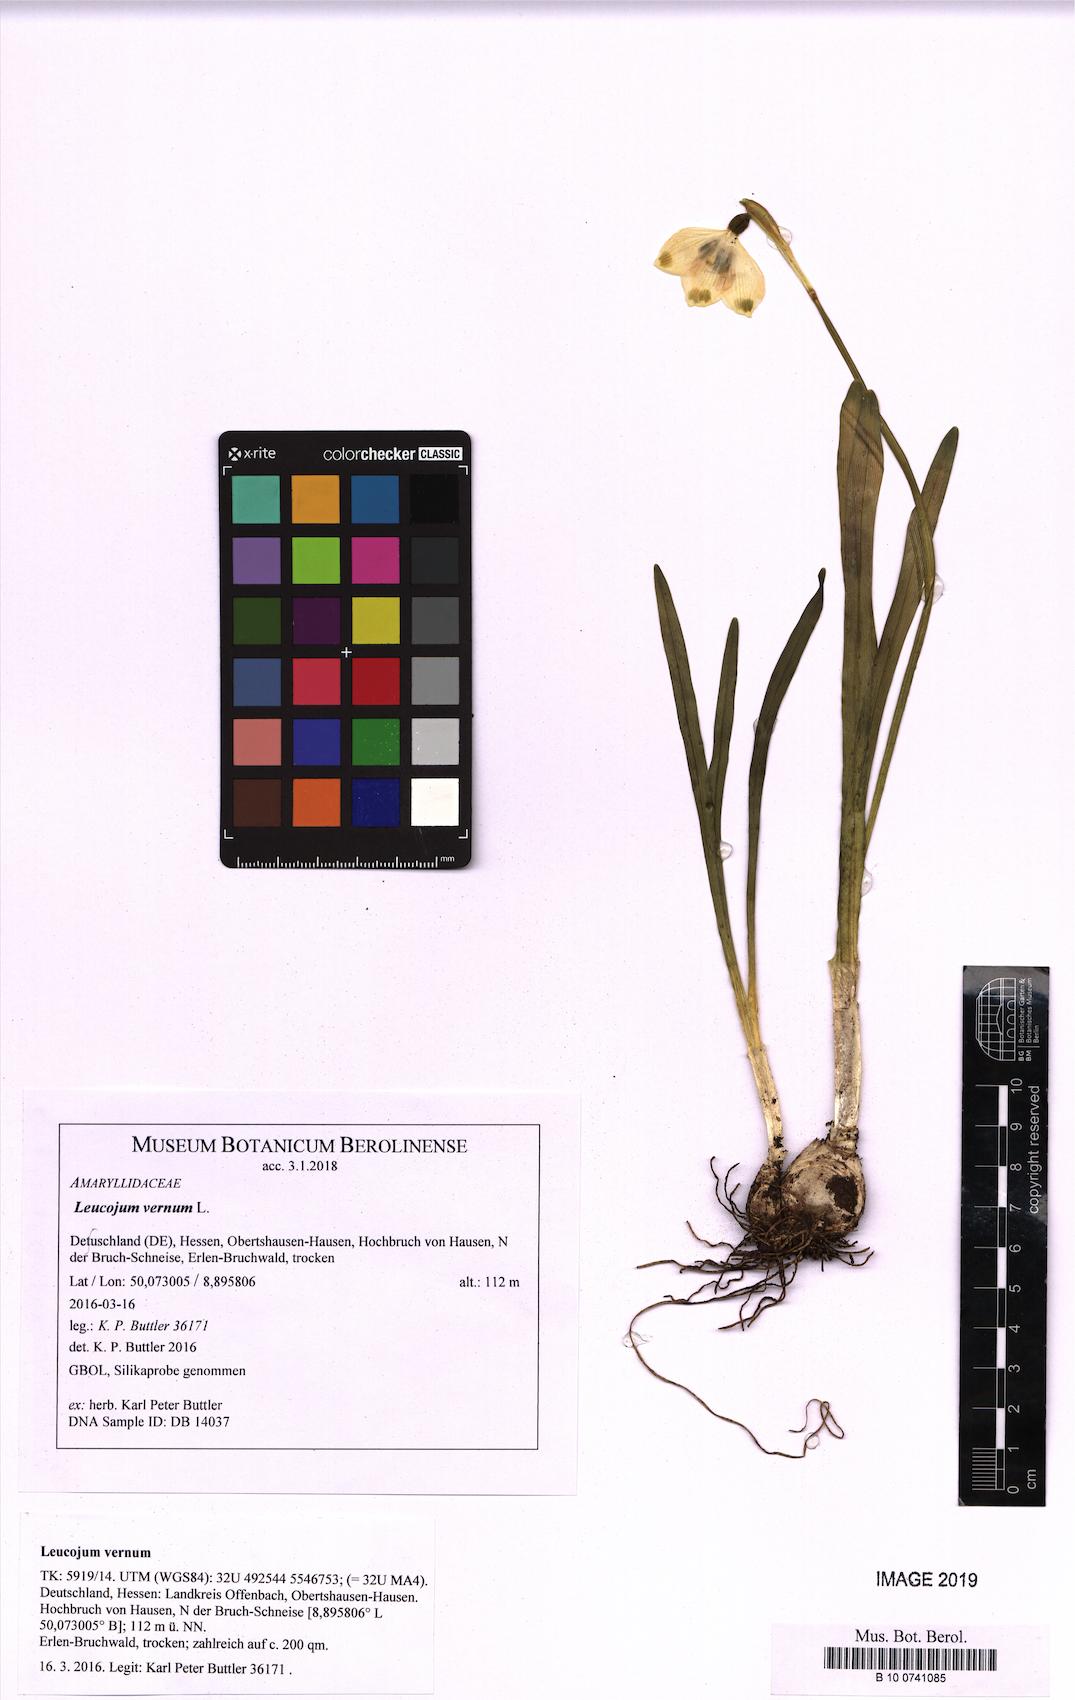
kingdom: Plantae
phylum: Tracheophyta
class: Liliopsida
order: Asparagales
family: Amaryllidaceae
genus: Leucojum
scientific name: Leucojum vernum
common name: Spring snowflake
